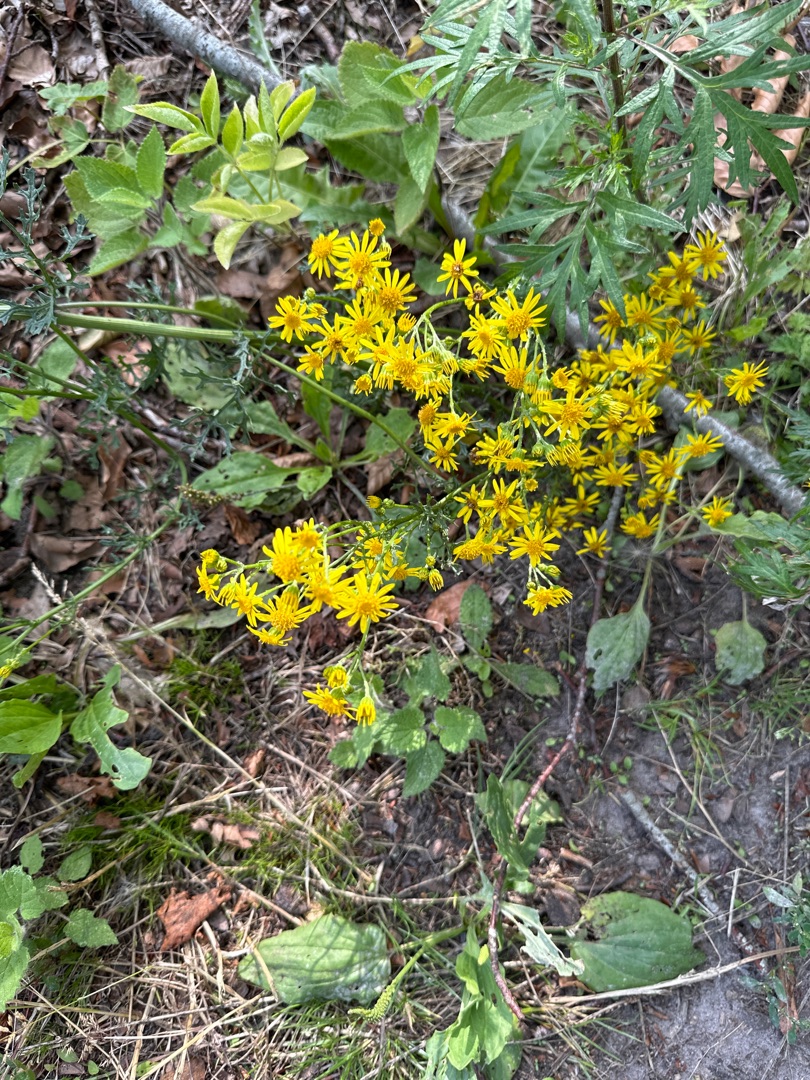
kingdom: Plantae
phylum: Tracheophyta
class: Magnoliopsida
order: Asterales
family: Asteraceae
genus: Jacobaea
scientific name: Jacobaea vulgaris
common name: Eng-brandbæger
